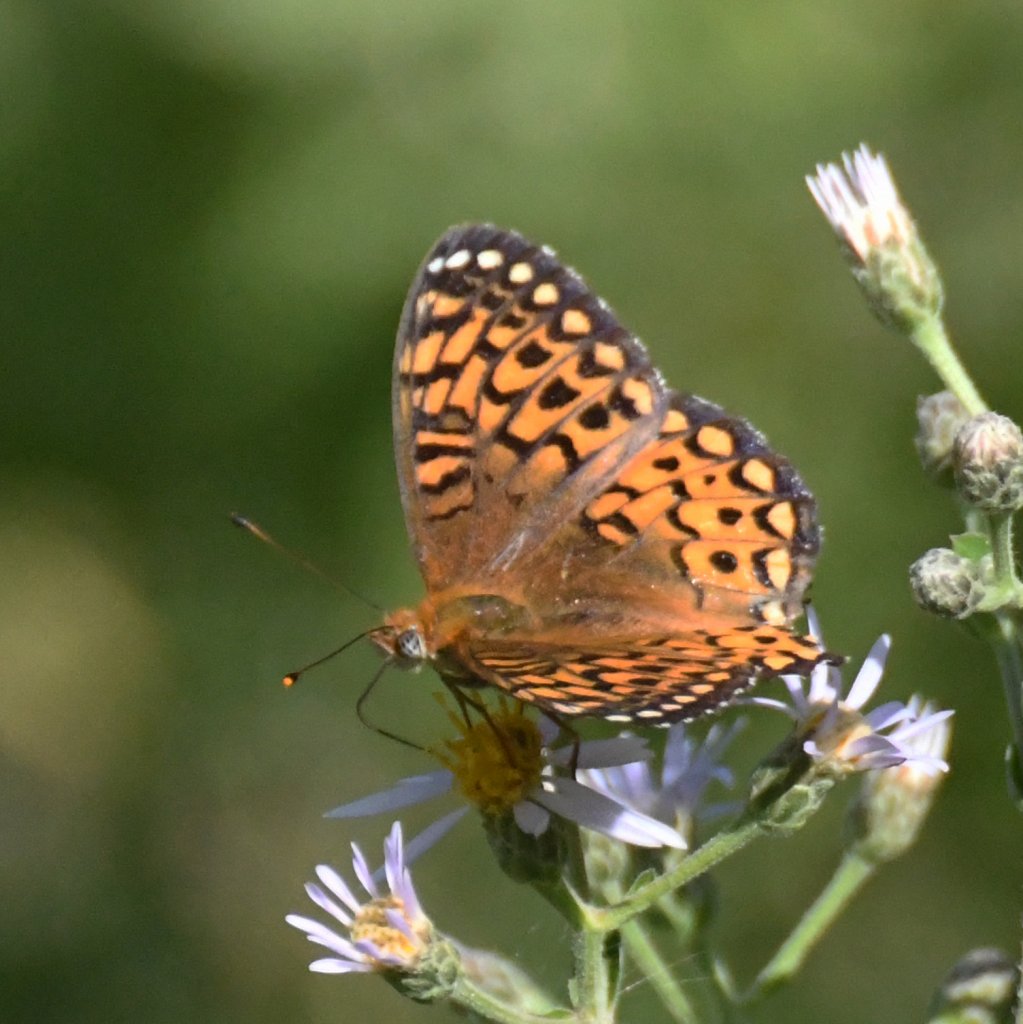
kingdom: Animalia
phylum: Arthropoda
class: Insecta
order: Lepidoptera
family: Nymphalidae
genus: Speyeria
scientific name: Speyeria atlantis
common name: Atlantis Fritillary
